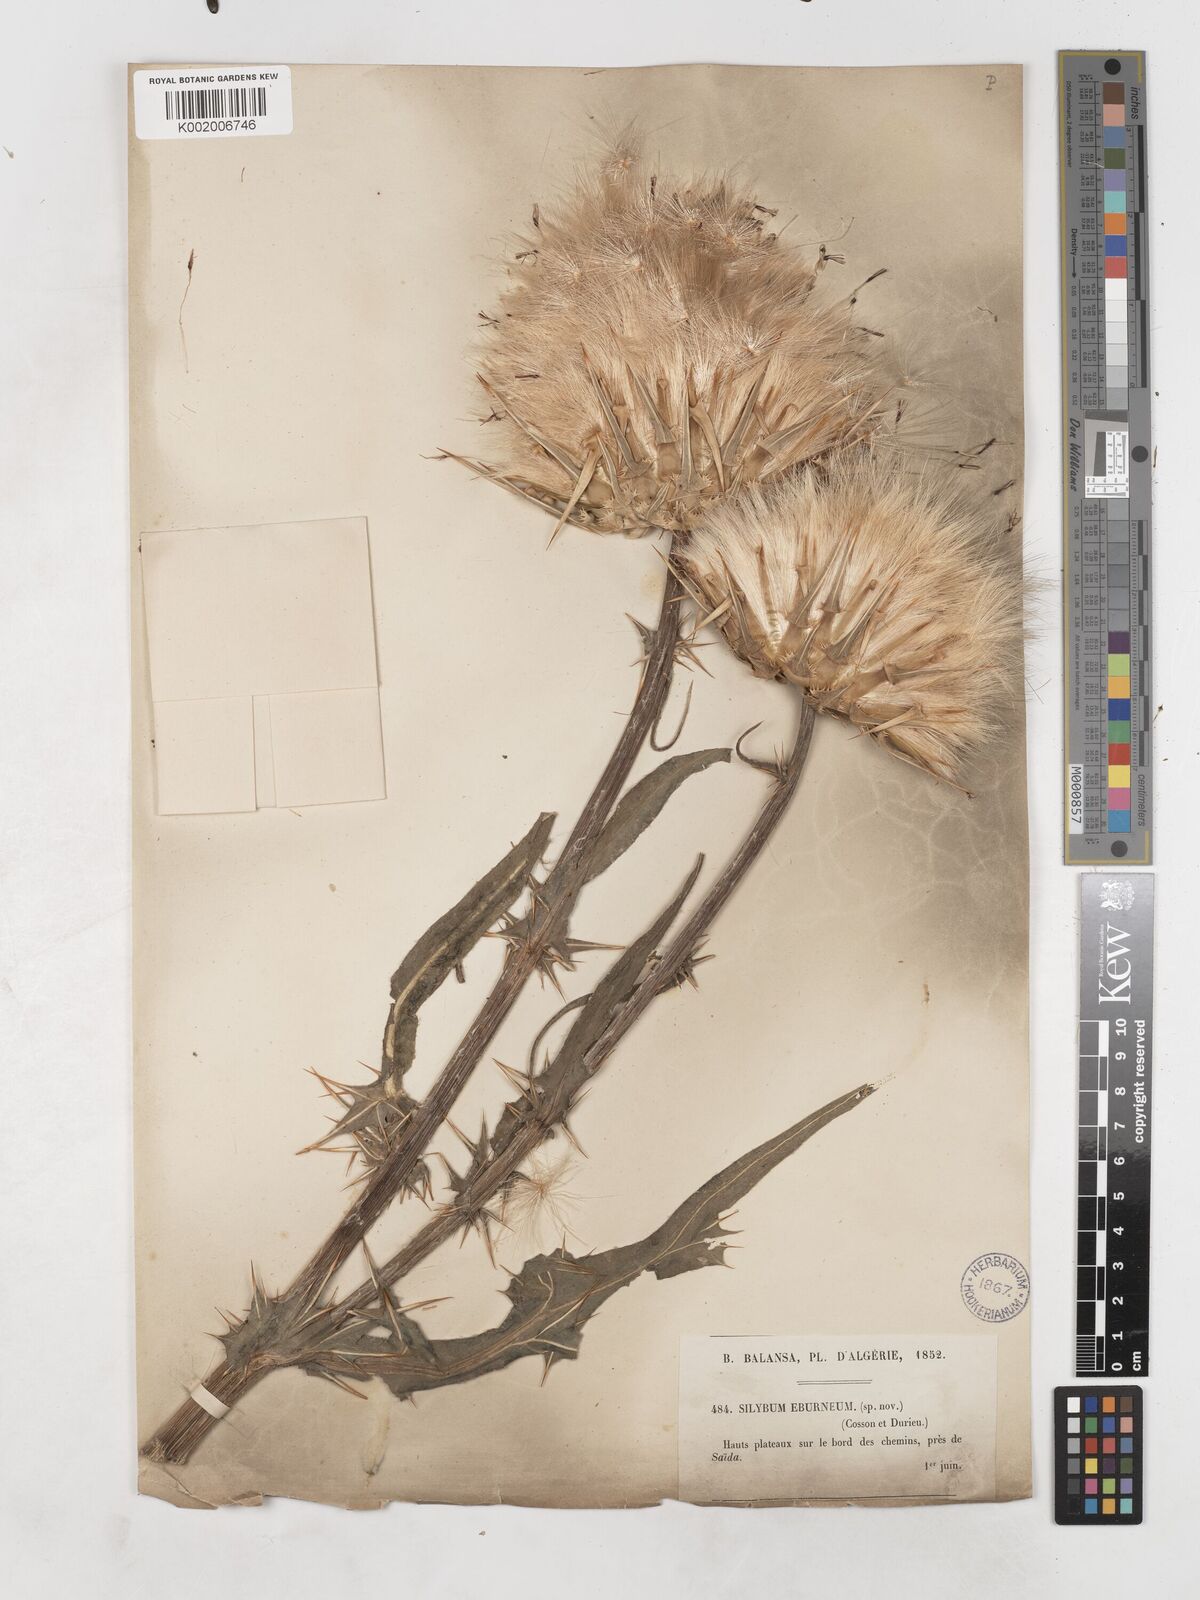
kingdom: Plantae
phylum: Tracheophyta
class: Magnoliopsida
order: Asterales
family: Asteraceae
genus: Silybum
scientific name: Silybum eburneum
